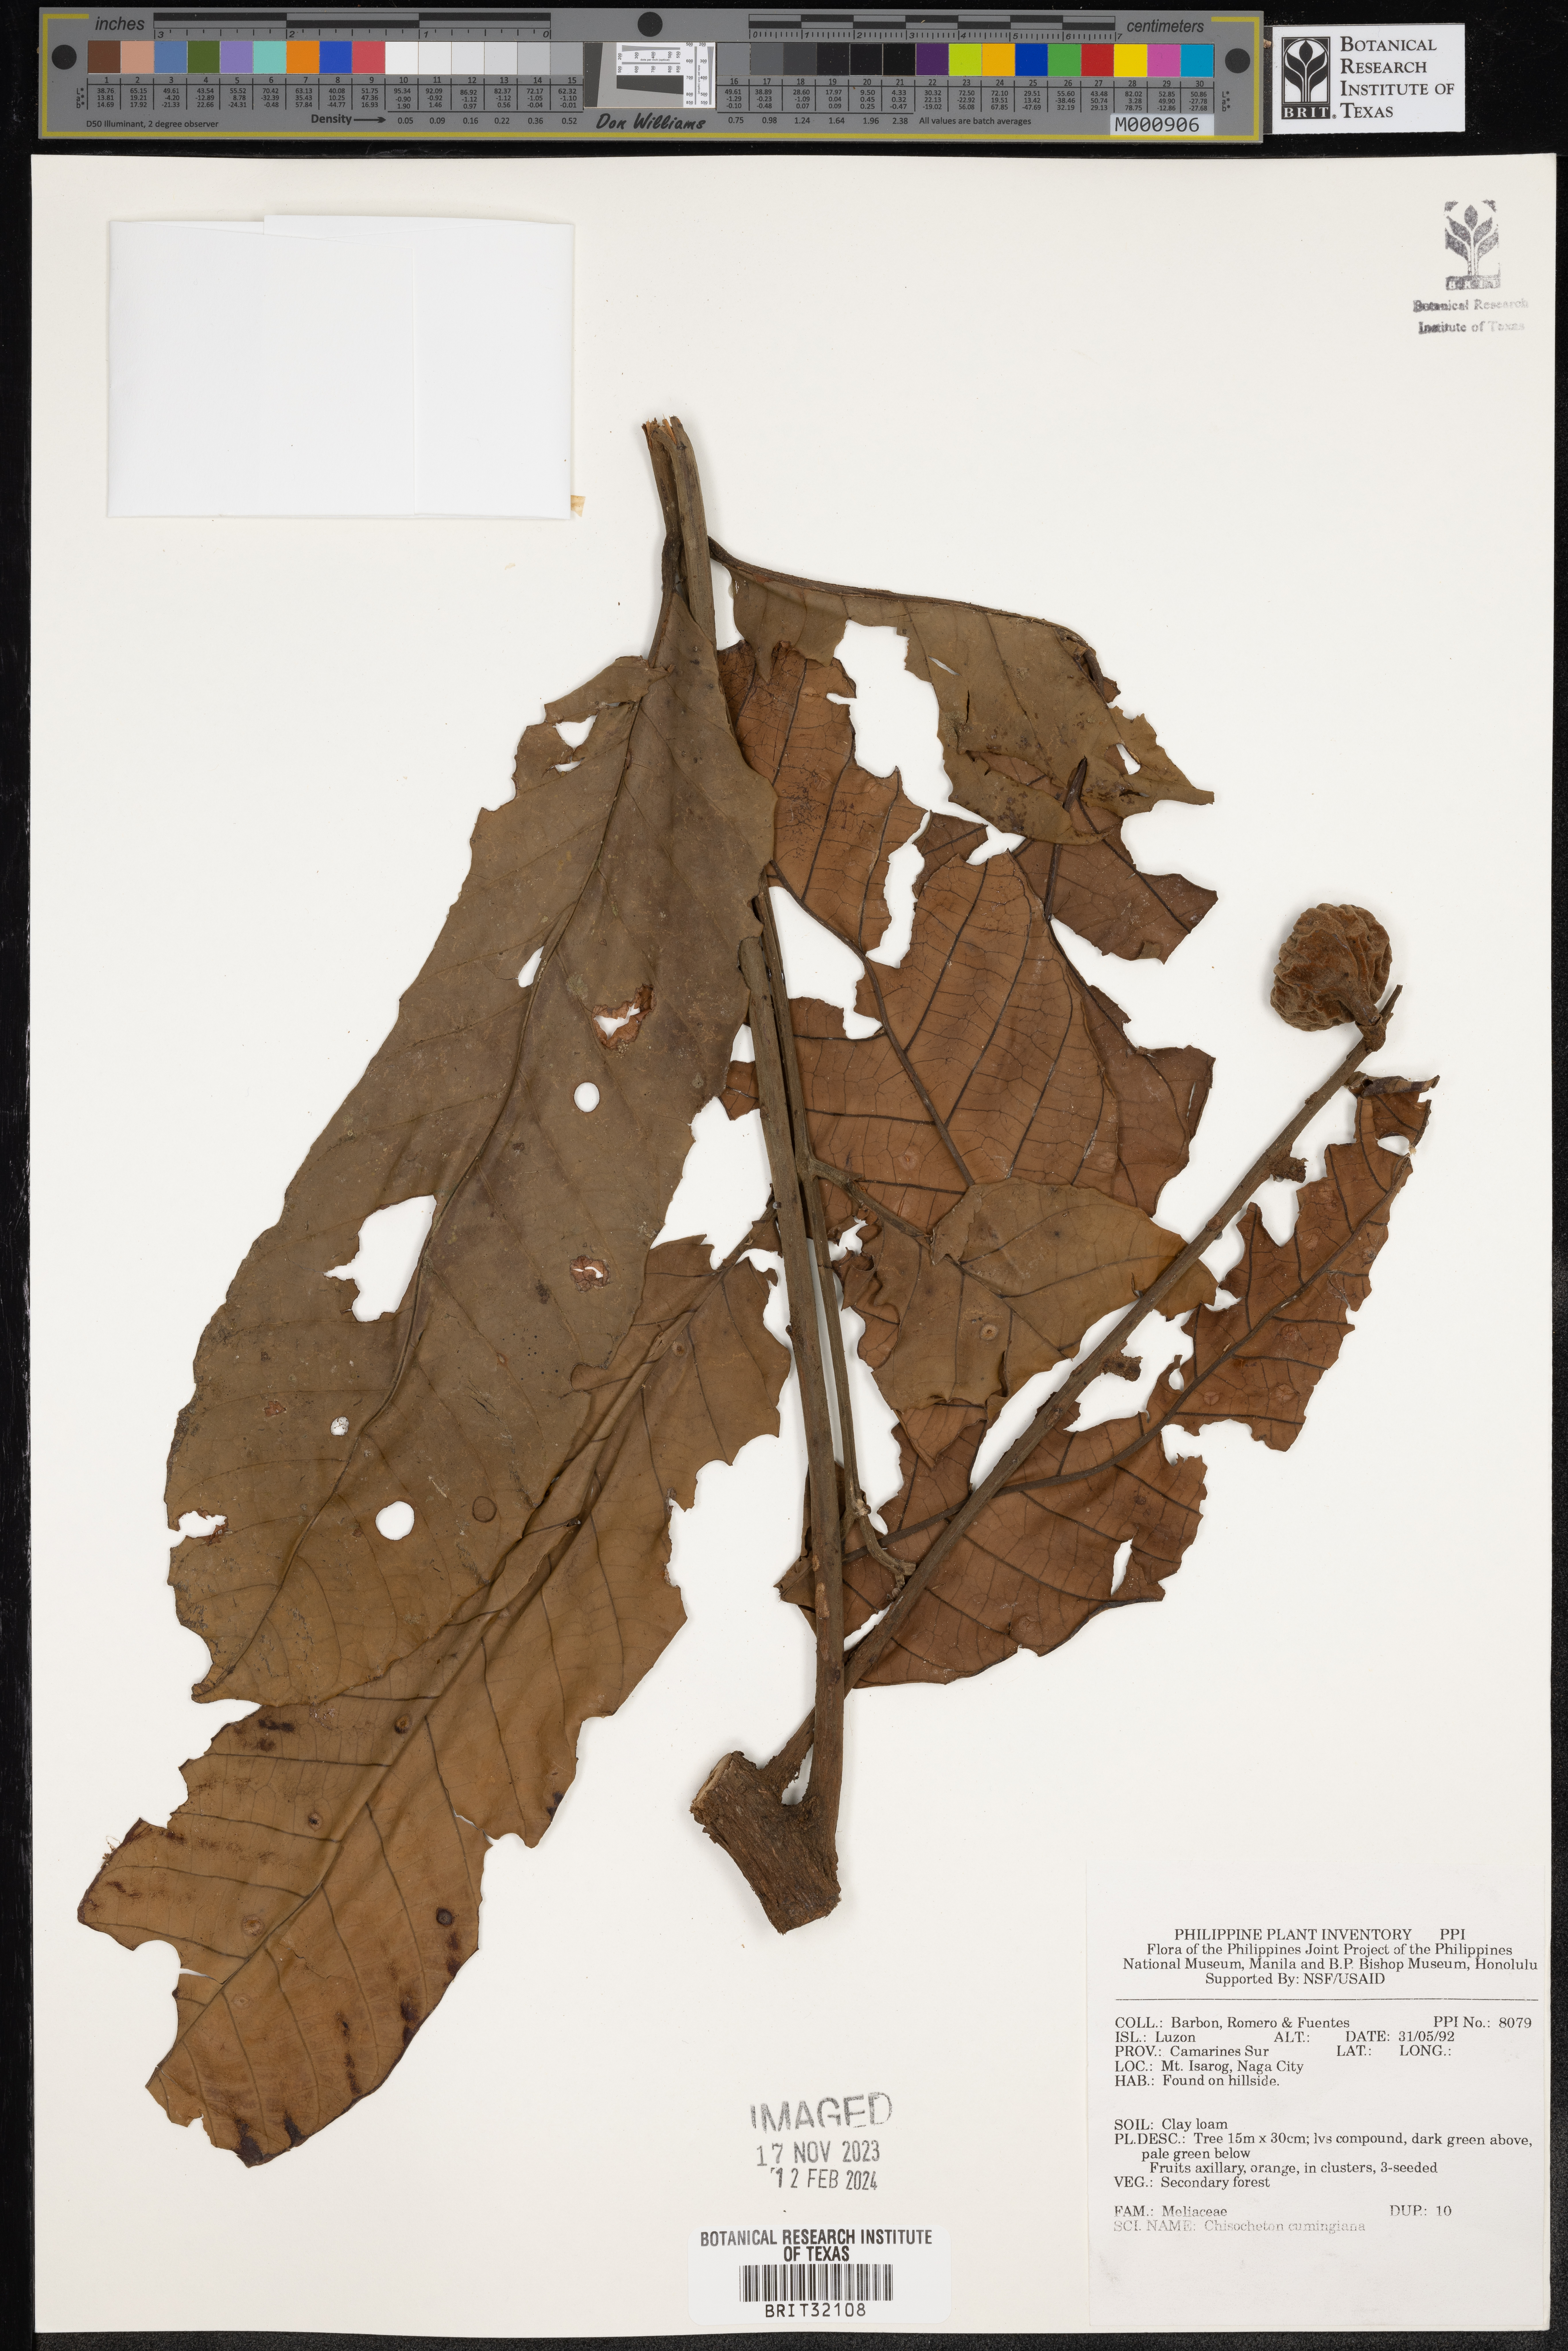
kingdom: Plantae
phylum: Tracheophyta
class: Magnoliopsida
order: Sapindales
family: Meliaceae
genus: Chisocheton
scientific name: Chisocheton cumingianus
